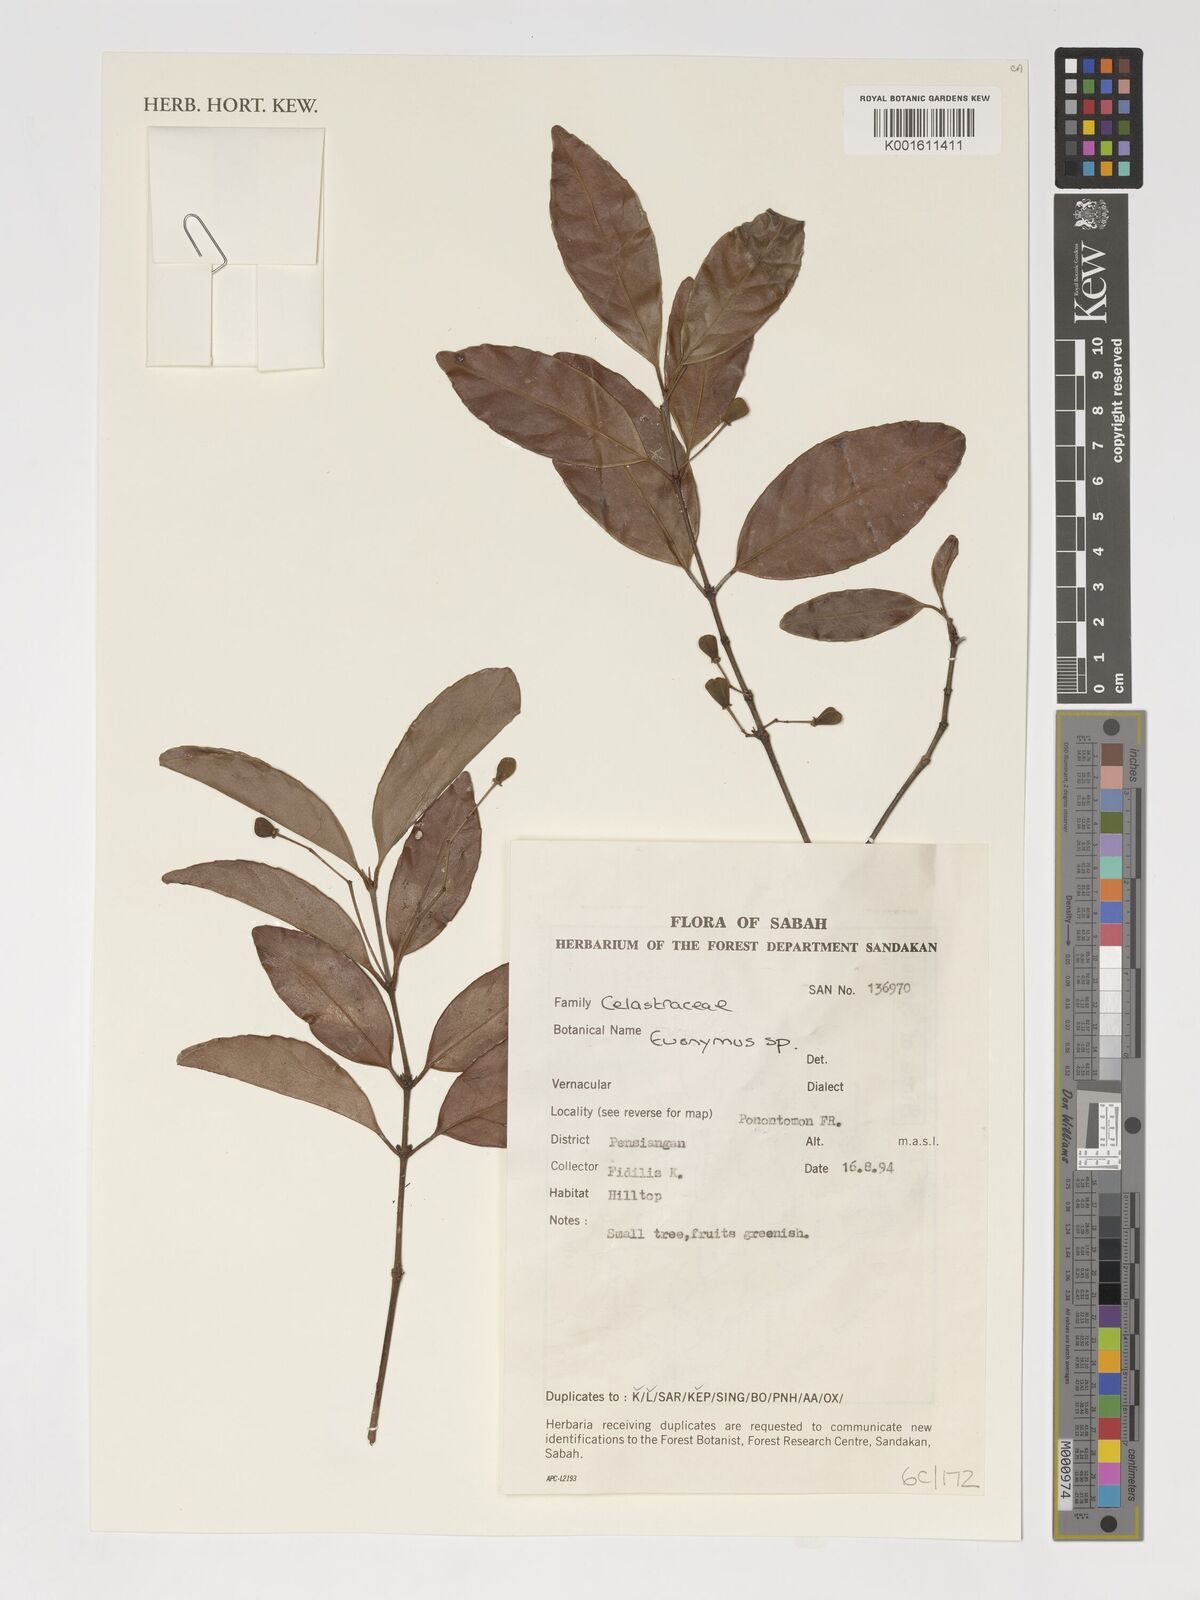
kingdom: Plantae
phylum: Tracheophyta
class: Magnoliopsida
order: Celastrales
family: Celastraceae
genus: Euonymus
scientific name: Euonymus
